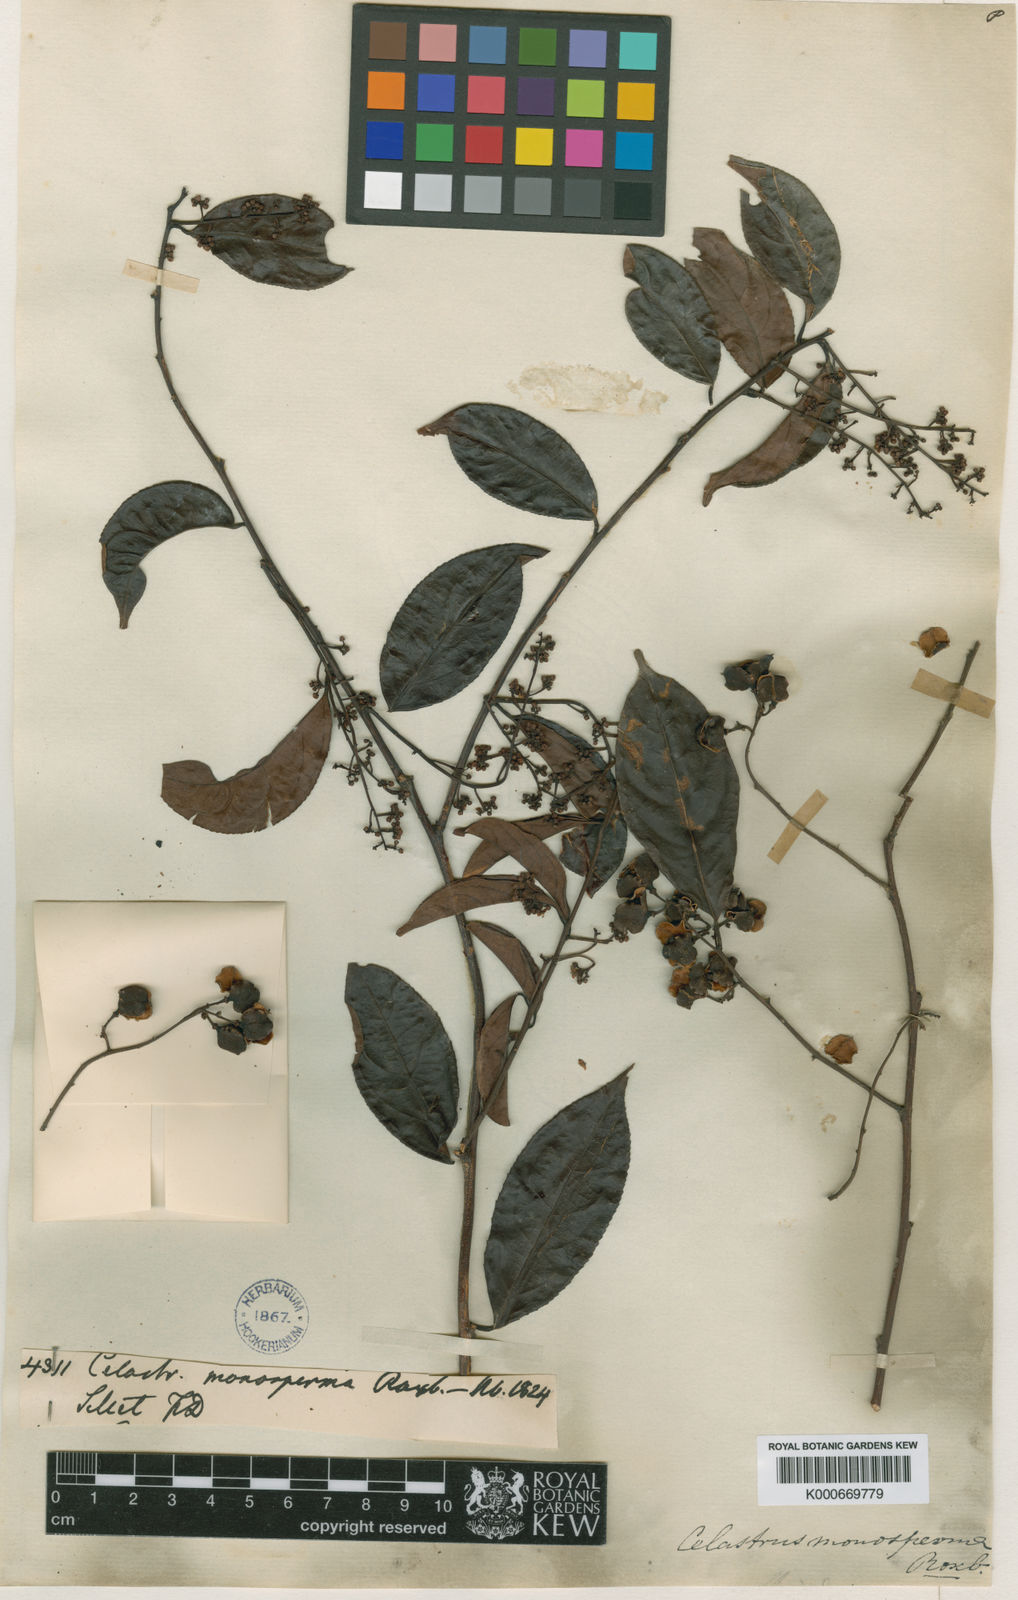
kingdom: Plantae
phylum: Tracheophyta
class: Magnoliopsida
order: Celastrales
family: Celastraceae
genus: Celastrus
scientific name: Celastrus monospermus
